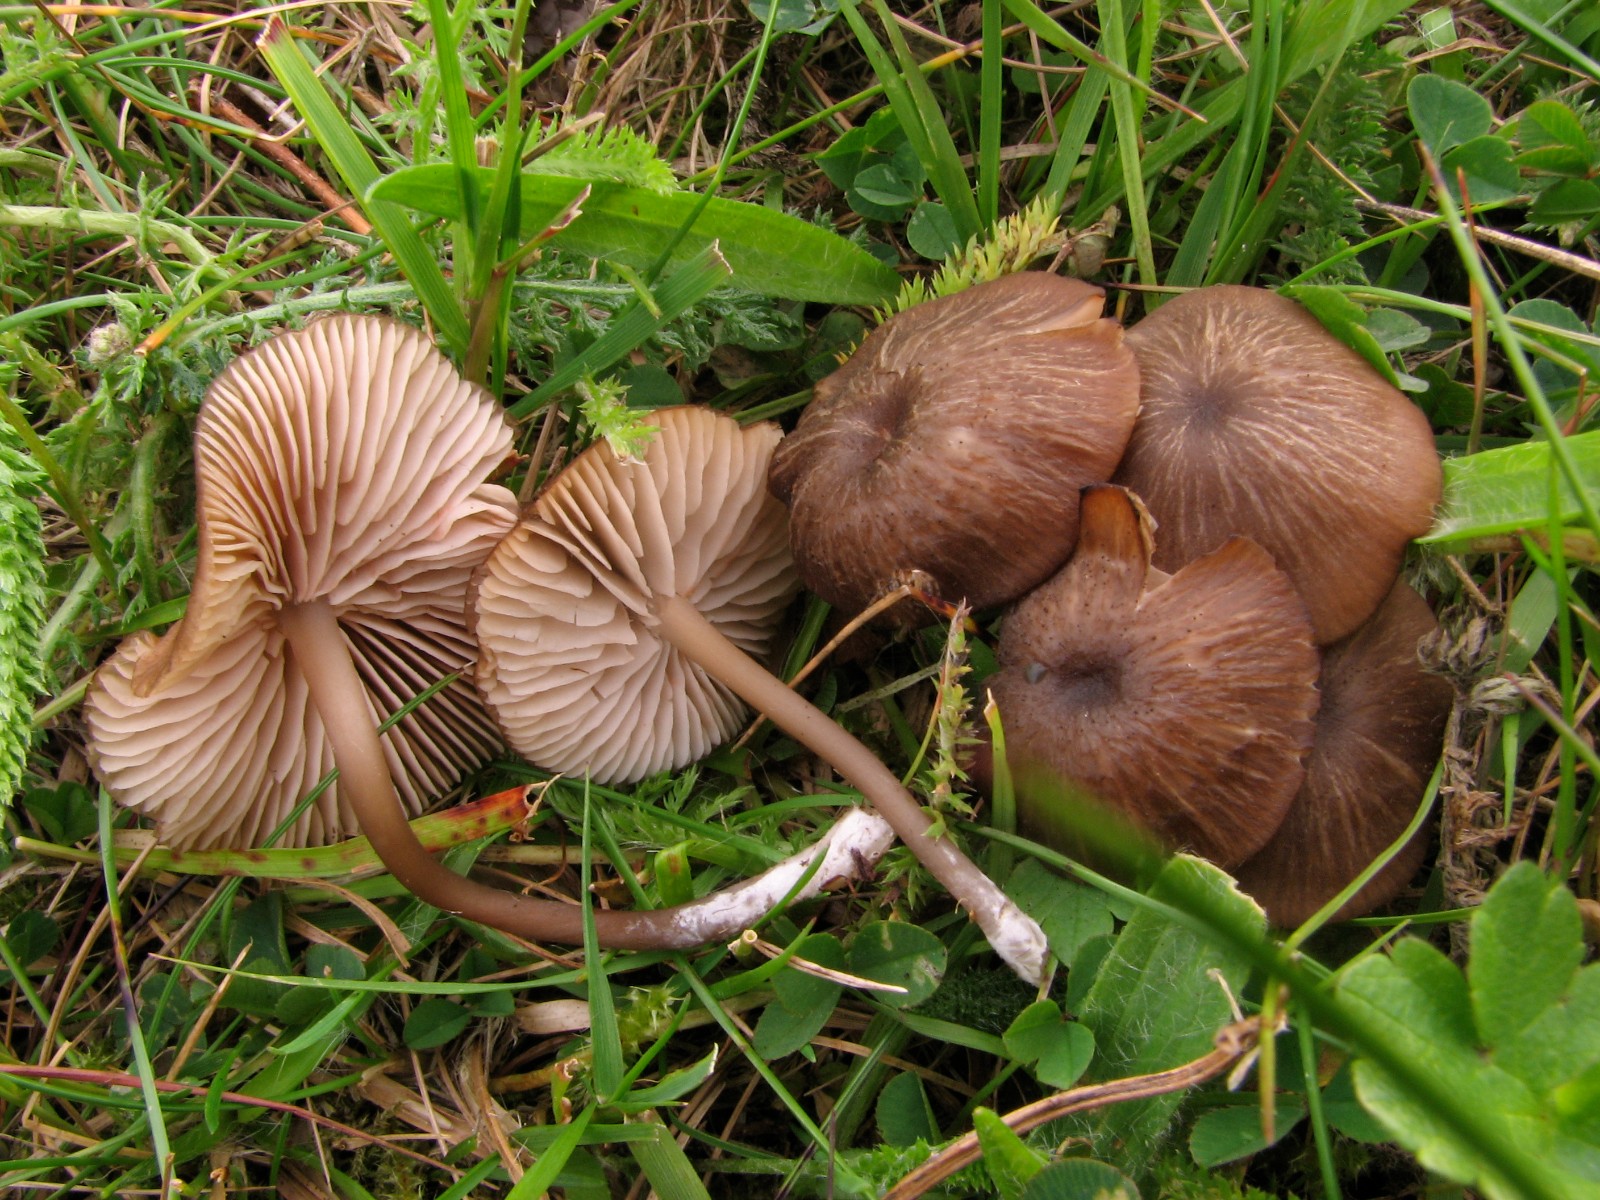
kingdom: Fungi
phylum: Basidiomycota
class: Agaricomycetes
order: Agaricales
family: Entolomataceae
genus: Entoloma
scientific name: Entoloma
